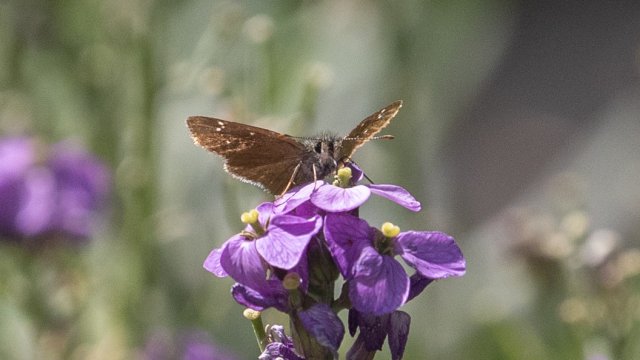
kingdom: Animalia
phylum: Arthropoda
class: Insecta
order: Lepidoptera
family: Hesperiidae
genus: Piruna
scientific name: Piruna pirus
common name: Russet Skipperling
